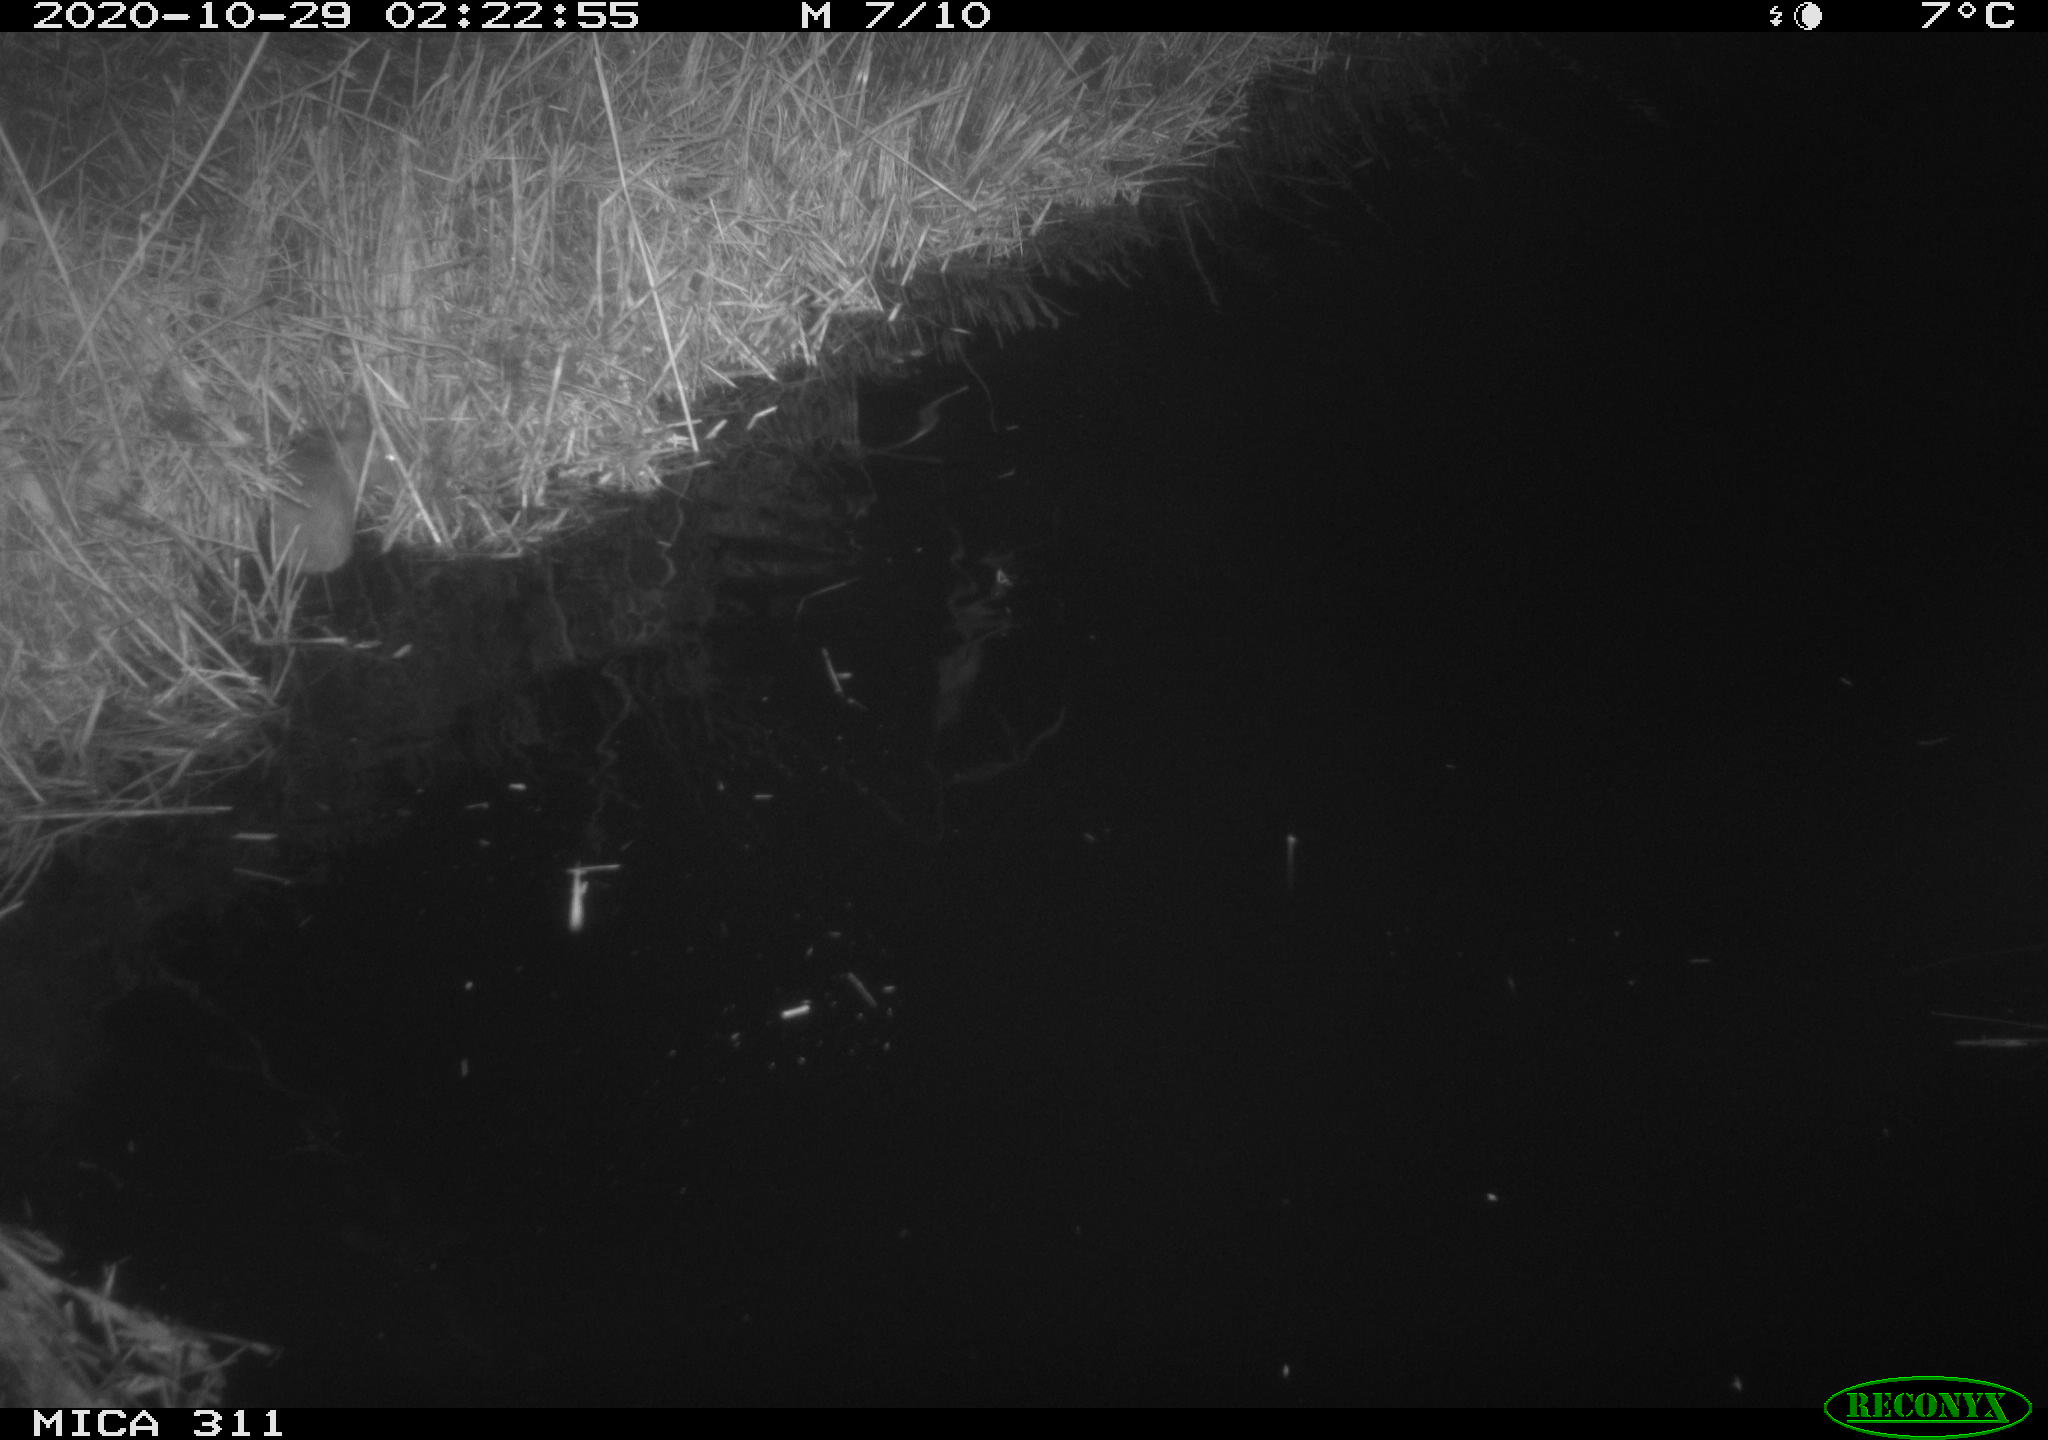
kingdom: Animalia
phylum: Chordata
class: Mammalia
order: Rodentia
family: Muridae
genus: Rattus
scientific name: Rattus norvegicus
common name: Brown rat
